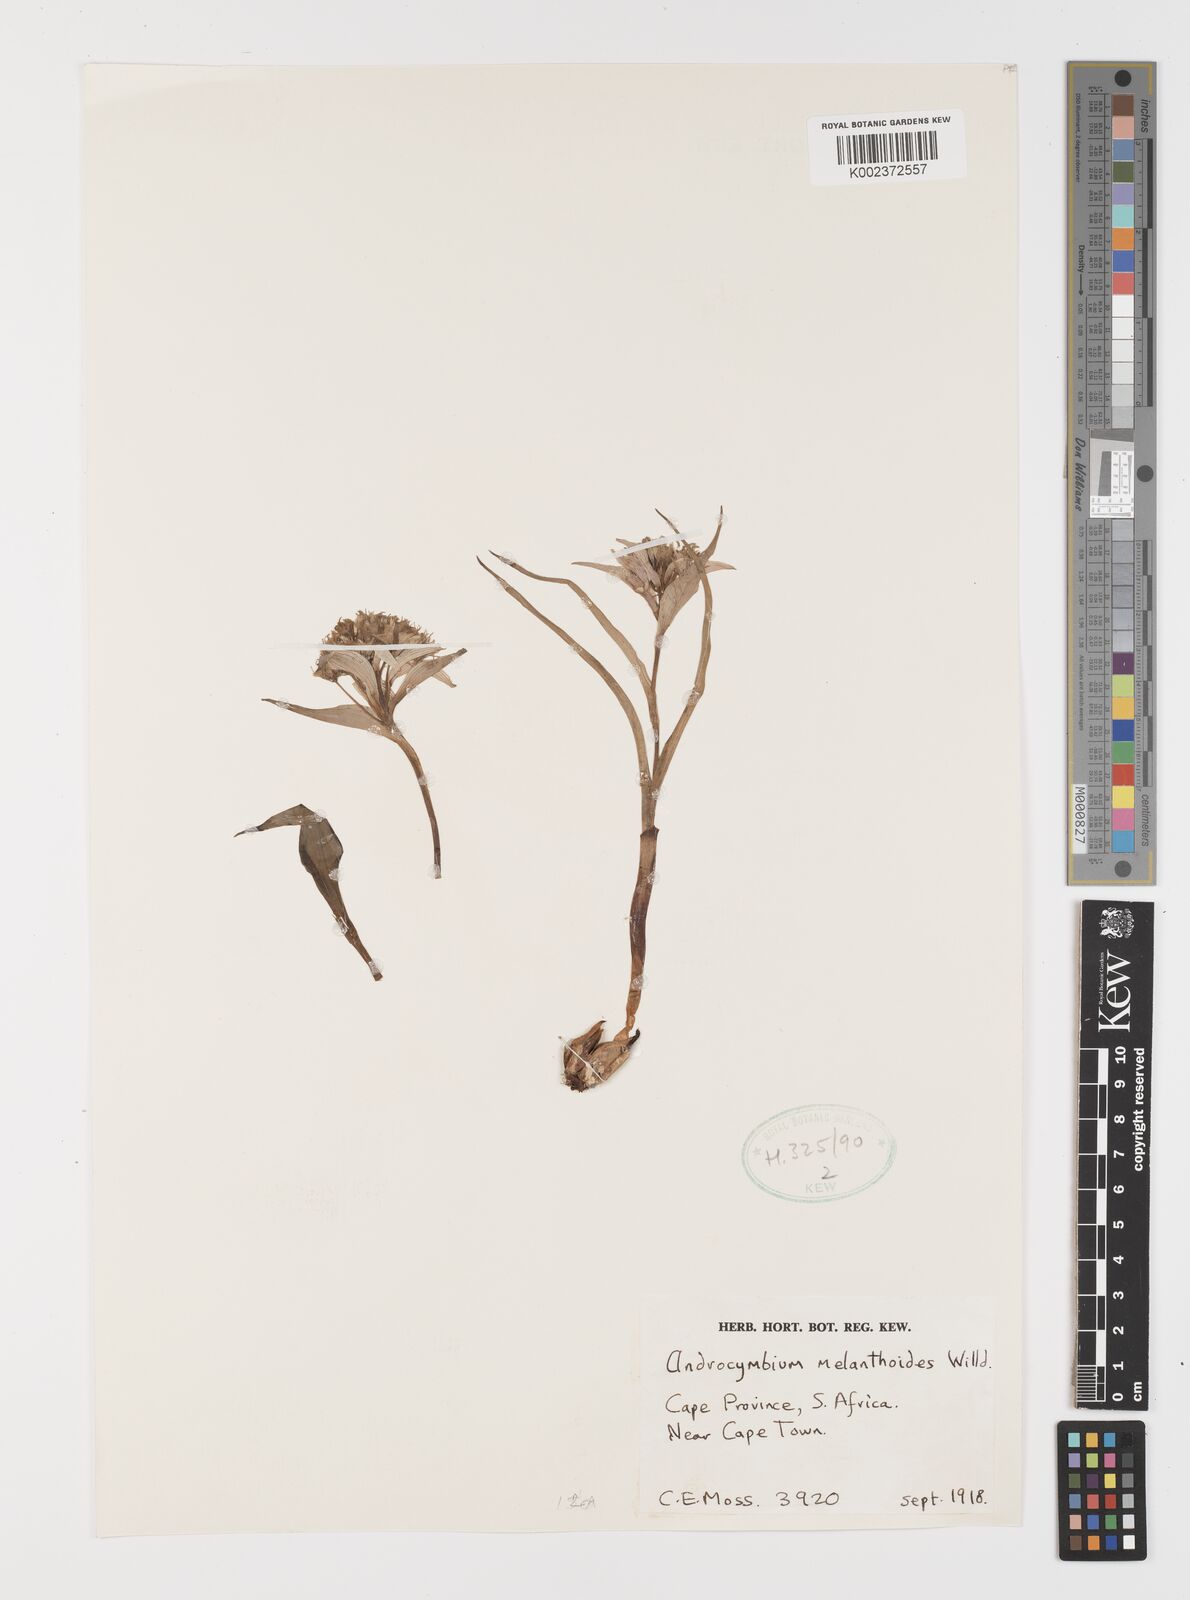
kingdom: Plantae
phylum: Tracheophyta
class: Liliopsida
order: Liliales
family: Colchicaceae
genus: Colchicum
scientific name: Colchicum melanthioides
